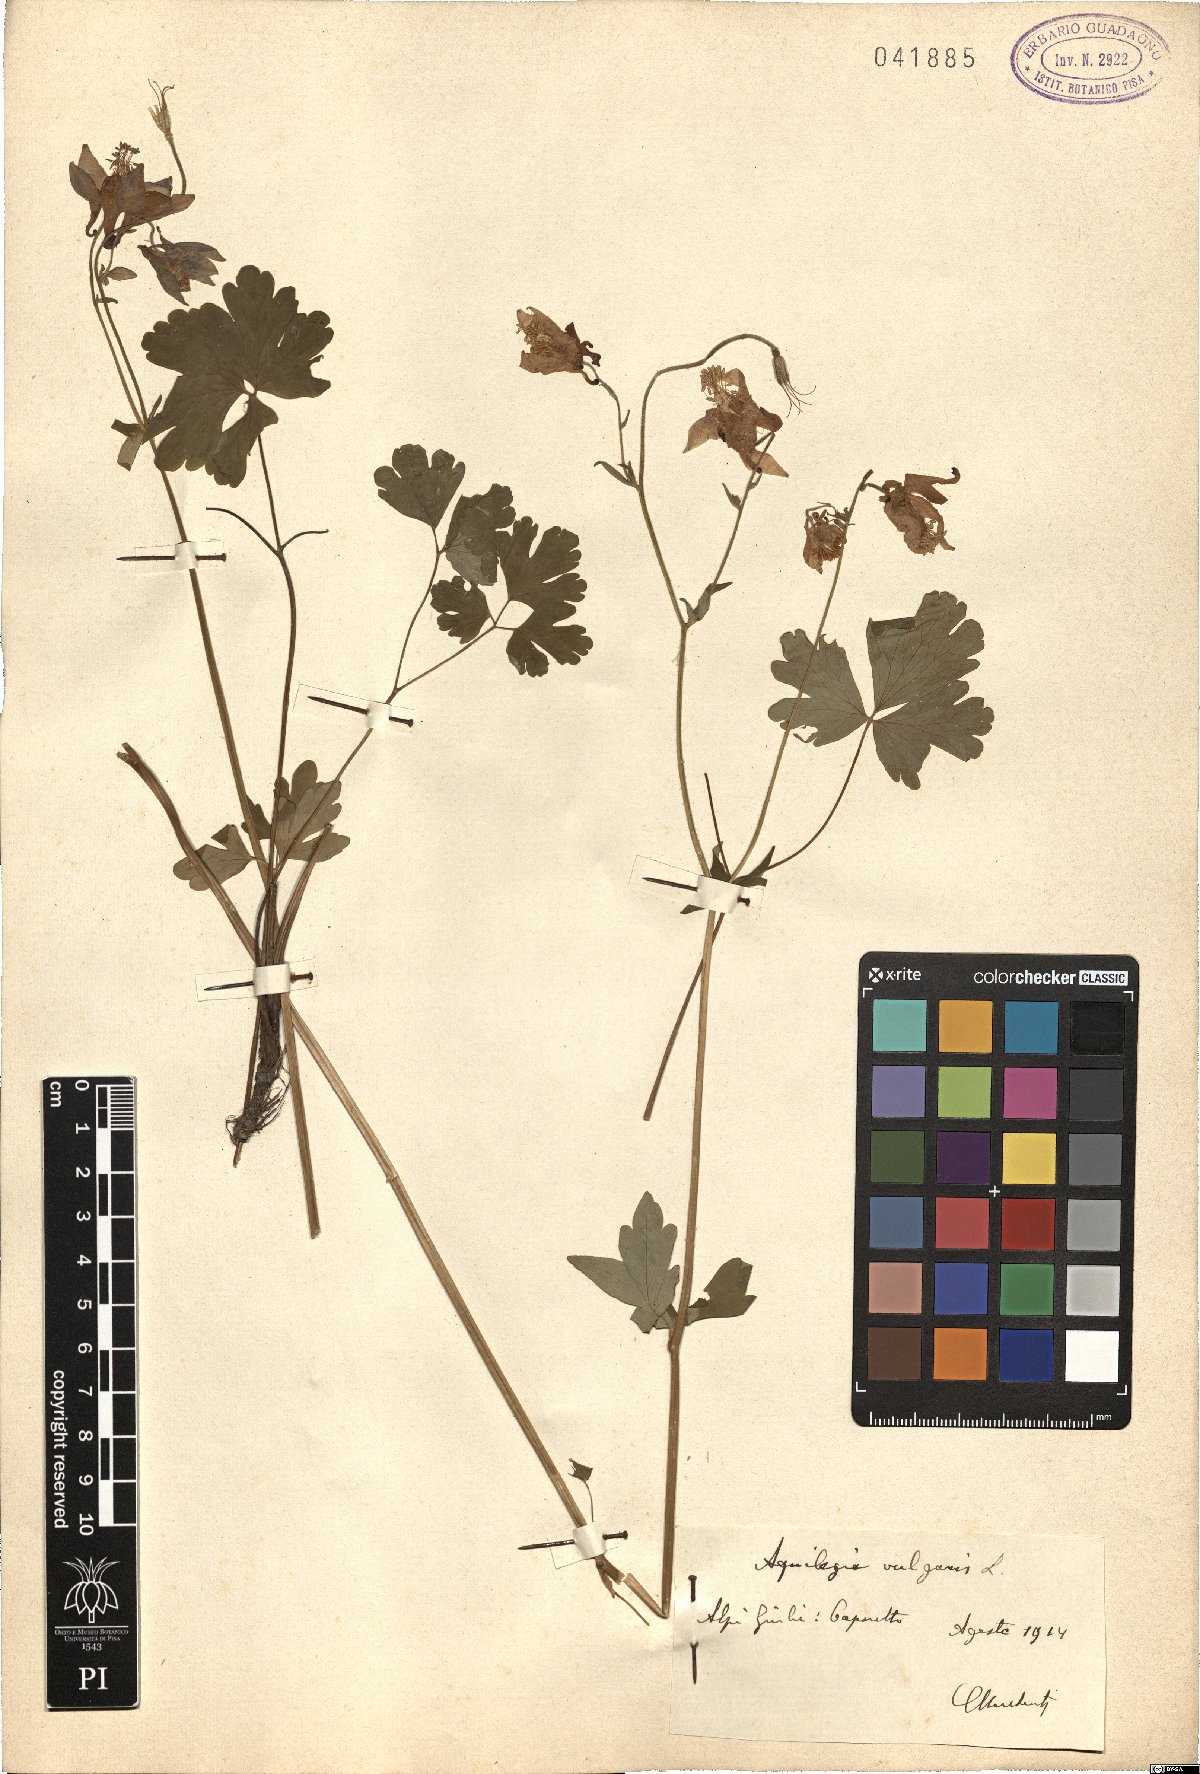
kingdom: Plantae
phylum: Tracheophyta
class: Magnoliopsida
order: Ranunculales
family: Ranunculaceae
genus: Aquilegia
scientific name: Aquilegia vulgaris
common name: Columbine
